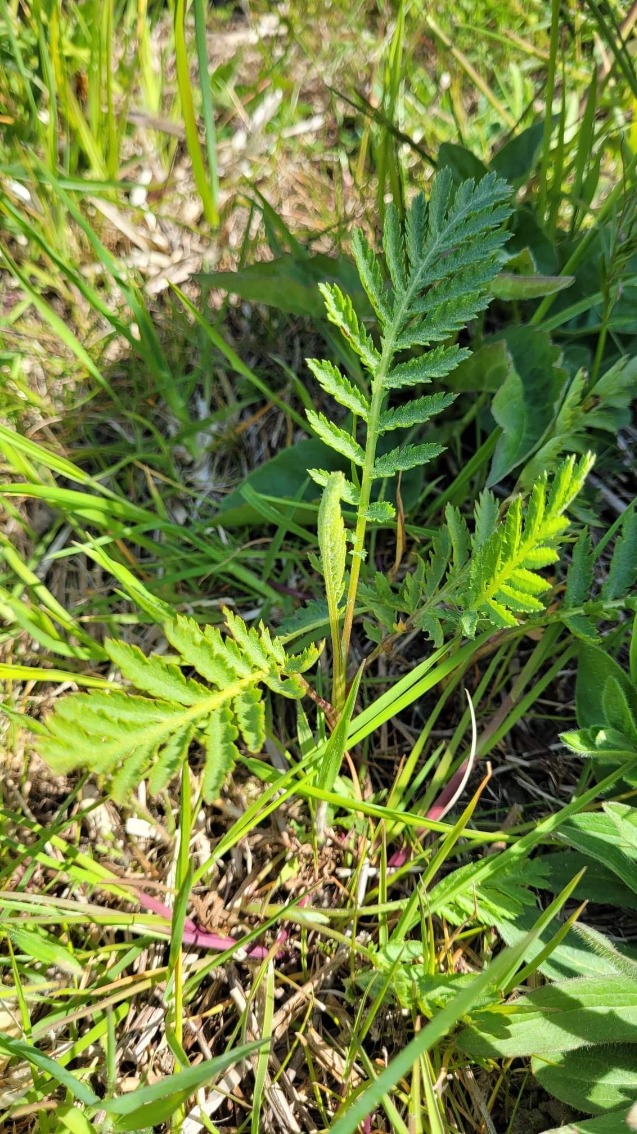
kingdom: Plantae
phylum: Tracheophyta
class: Magnoliopsida
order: Asterales
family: Asteraceae
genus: Tanacetum
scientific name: Tanacetum vulgare
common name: Rejnfan
